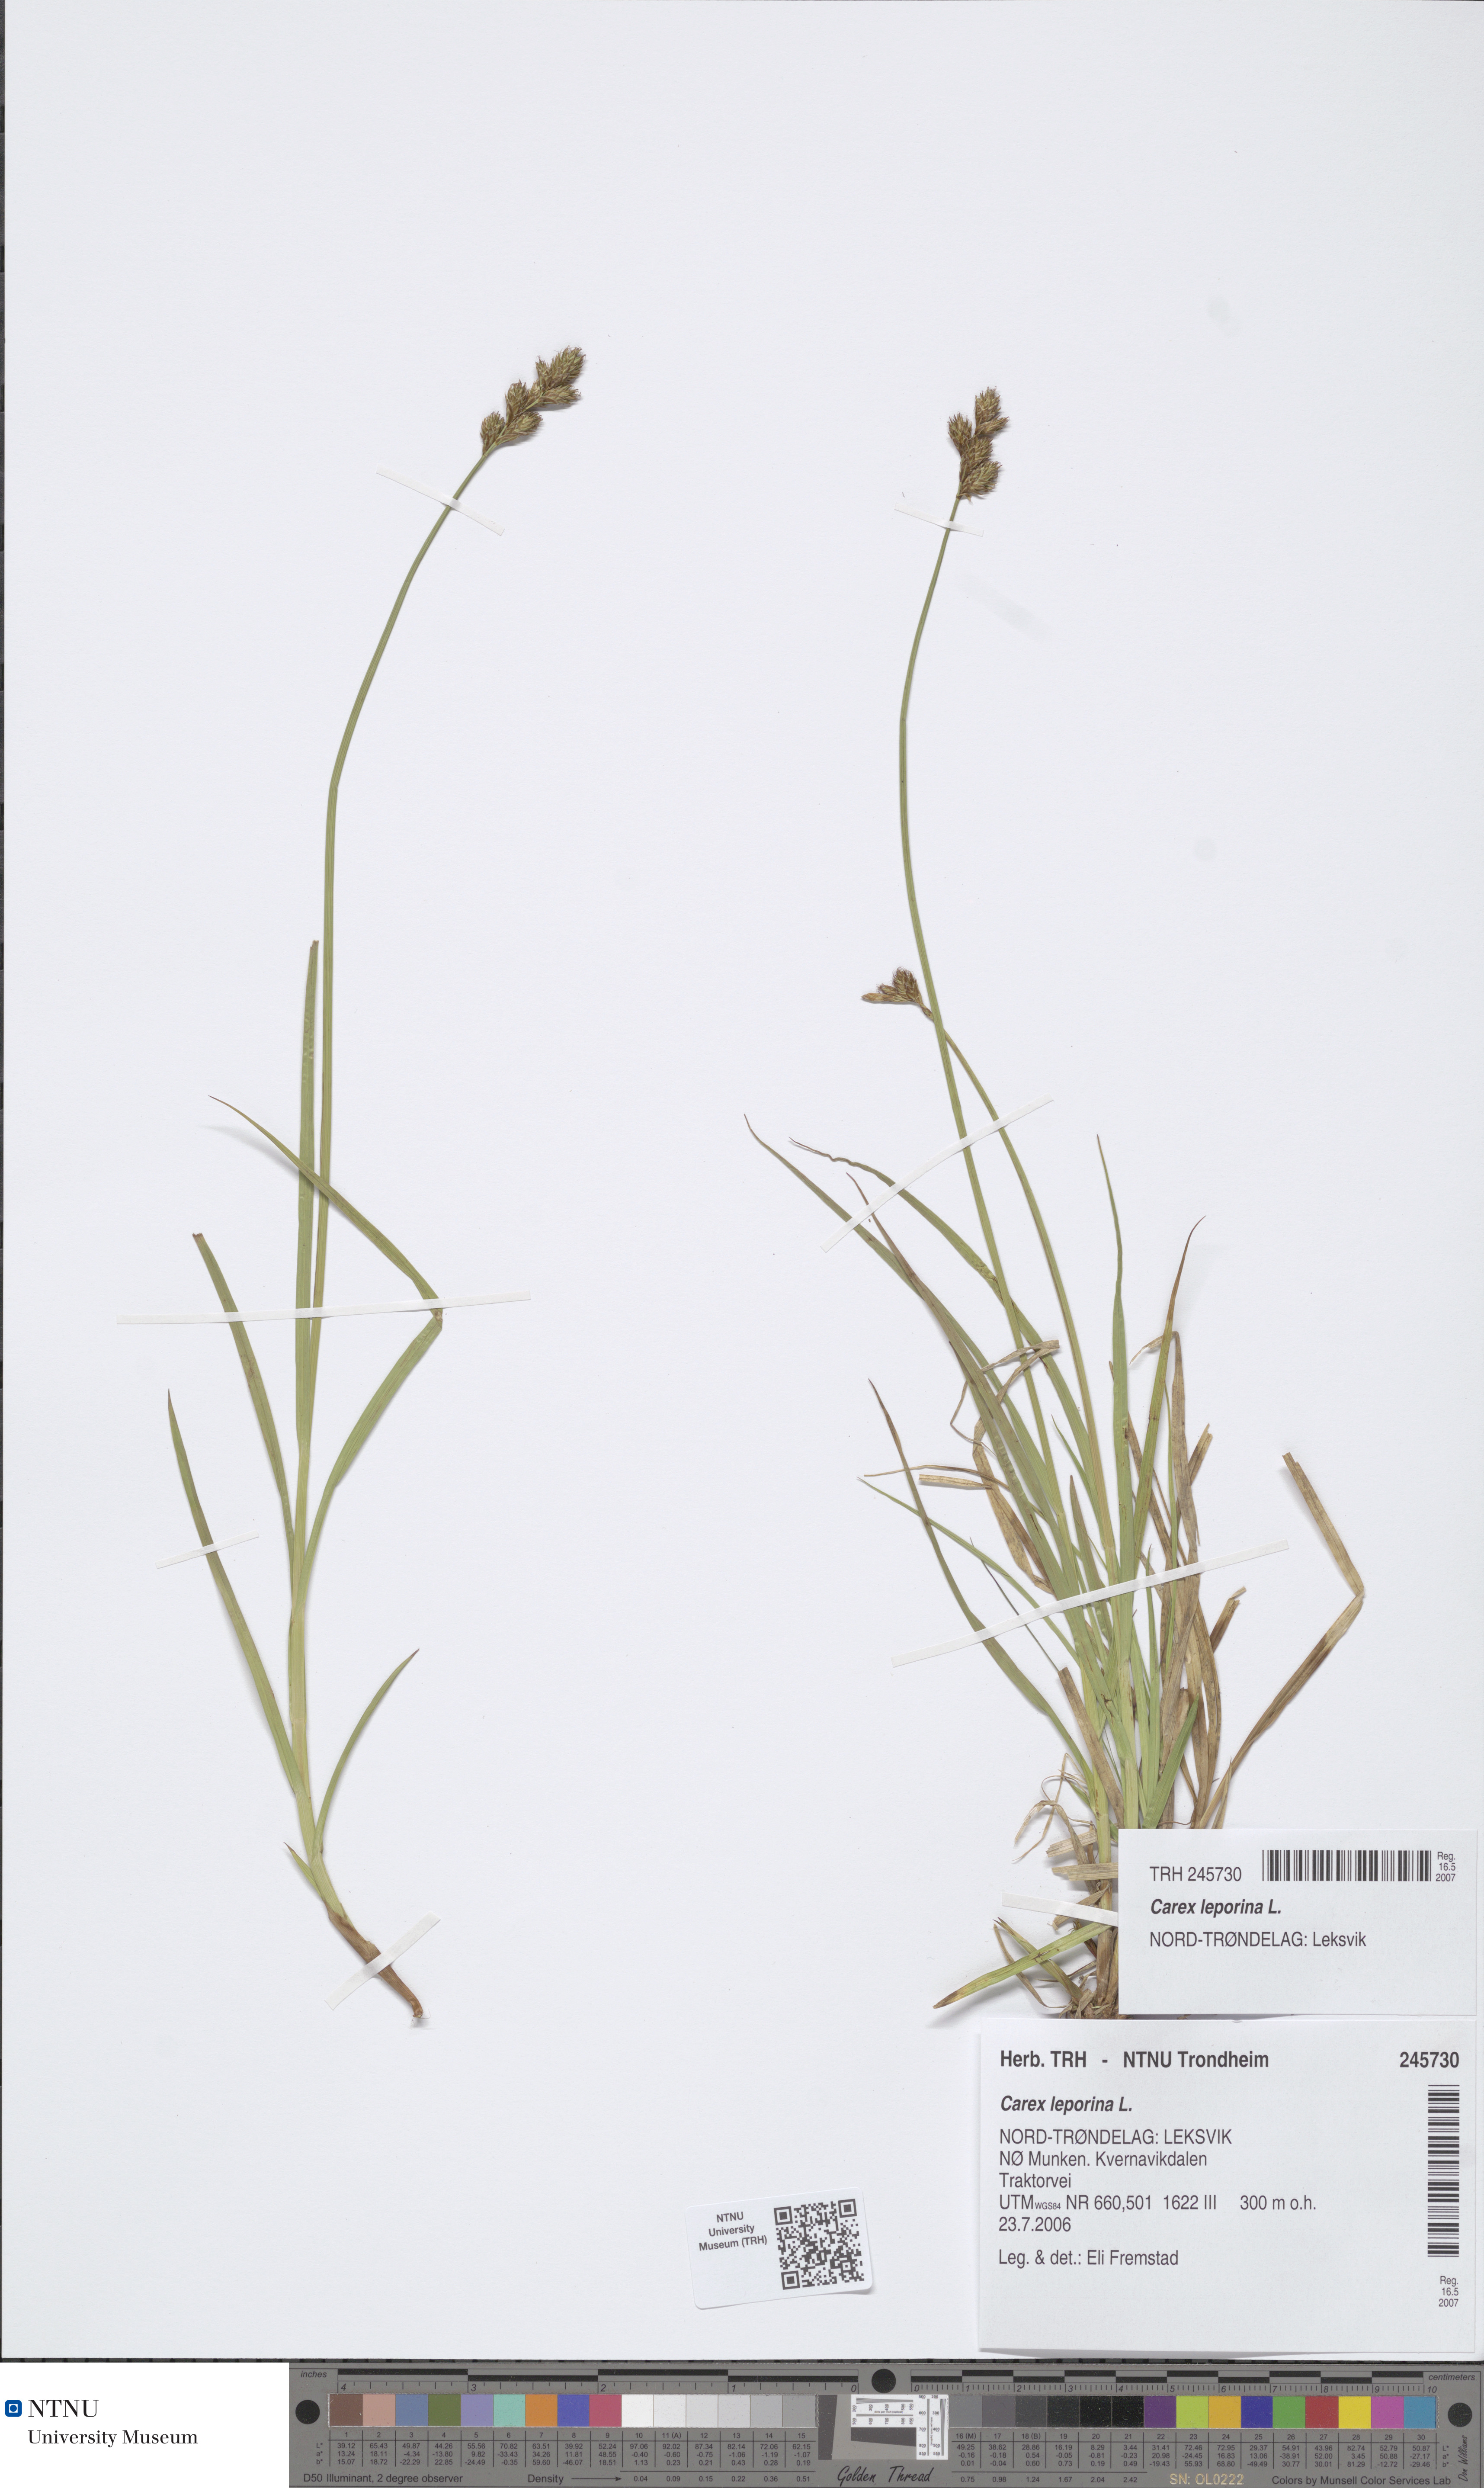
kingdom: Plantae
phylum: Tracheophyta
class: Liliopsida
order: Poales
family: Cyperaceae
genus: Carex
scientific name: Carex leporina
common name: Oval sedge
